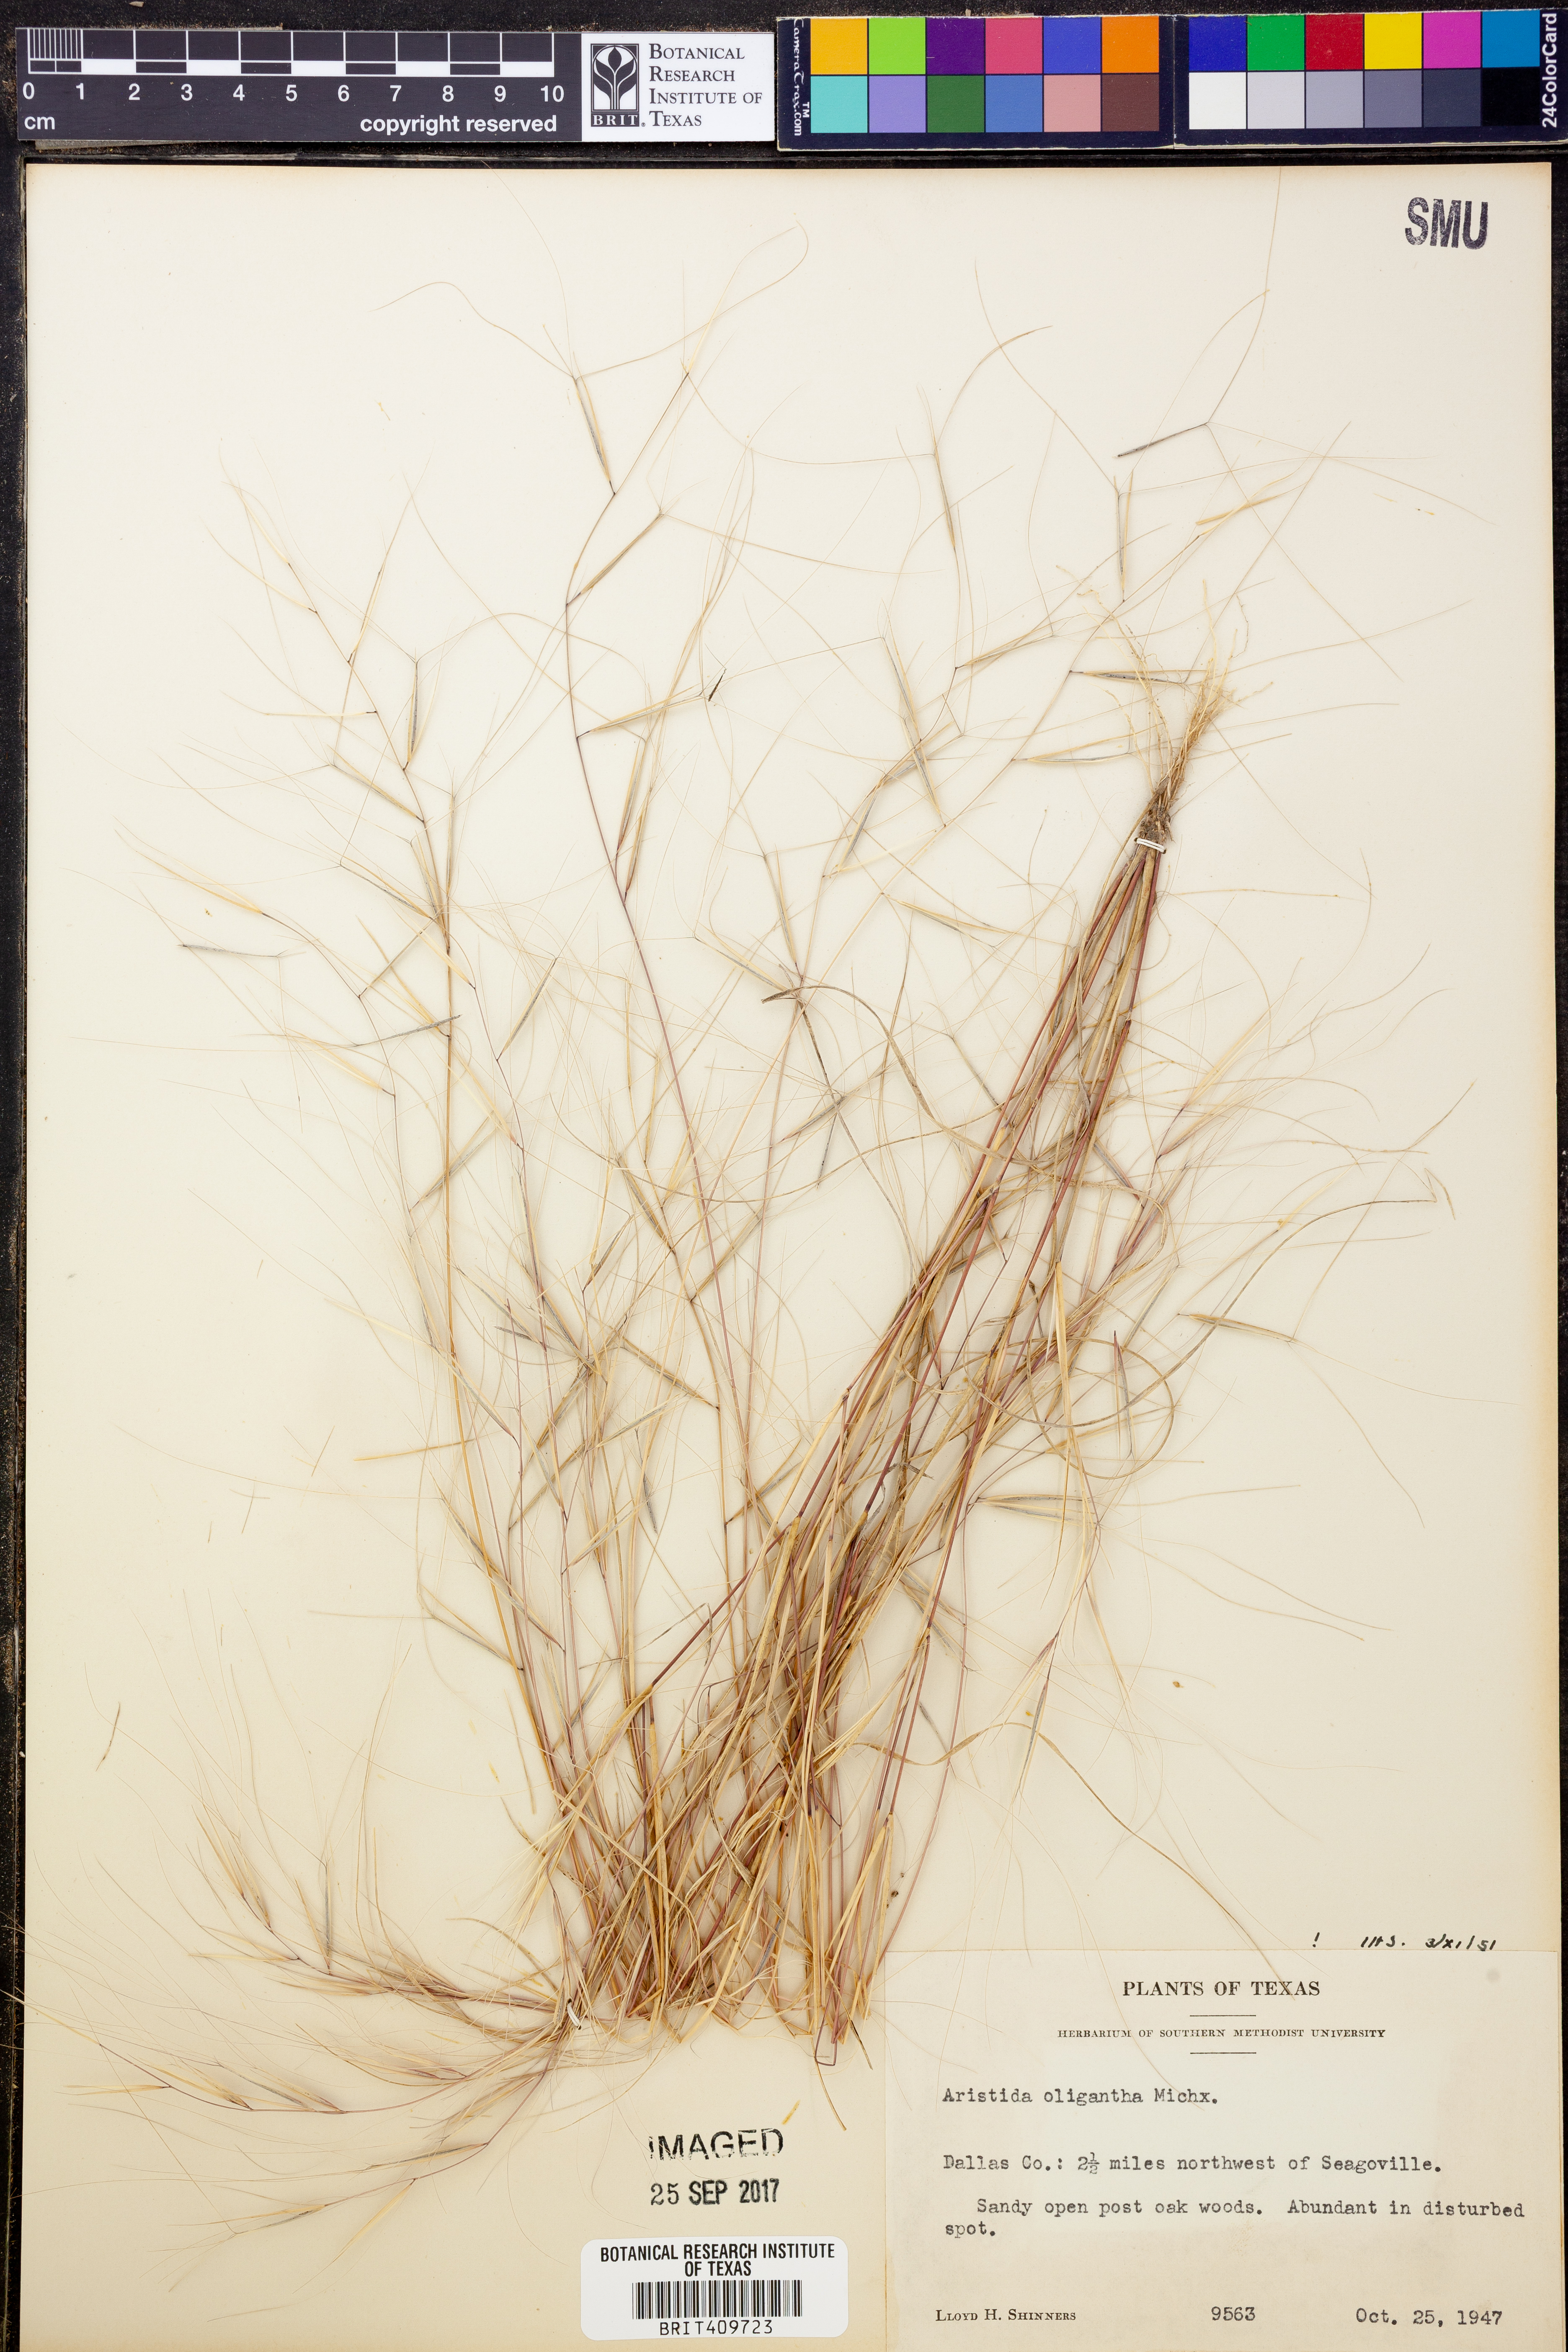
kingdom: Plantae
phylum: Tracheophyta
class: Liliopsida
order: Poales
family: Poaceae
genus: Aristida
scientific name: Aristida oligantha
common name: Few-flowered aristida
